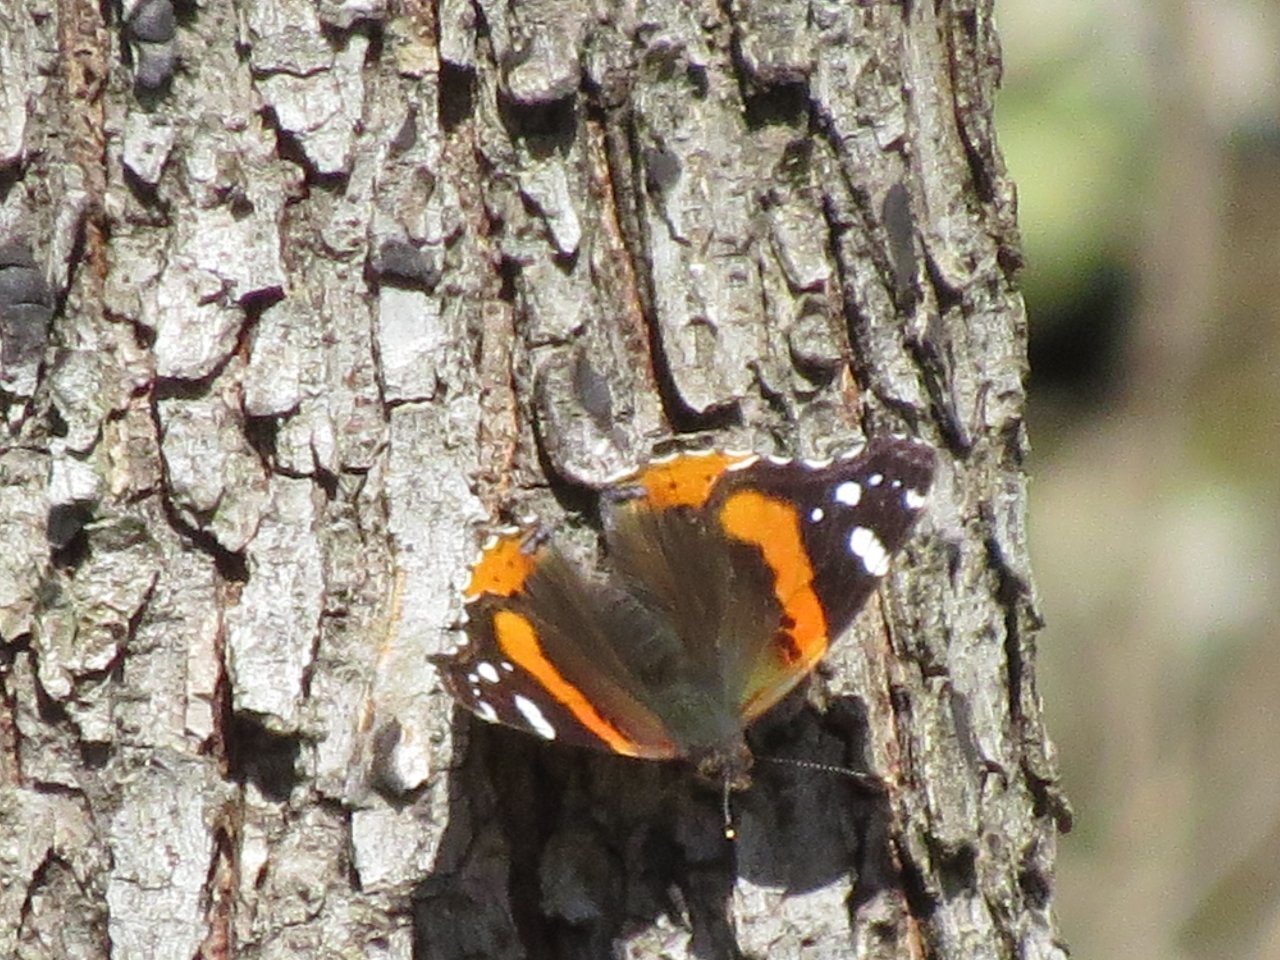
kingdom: Animalia
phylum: Arthropoda
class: Insecta
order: Lepidoptera
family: Nymphalidae
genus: Vanessa
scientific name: Vanessa atalanta
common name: Red Admiral
